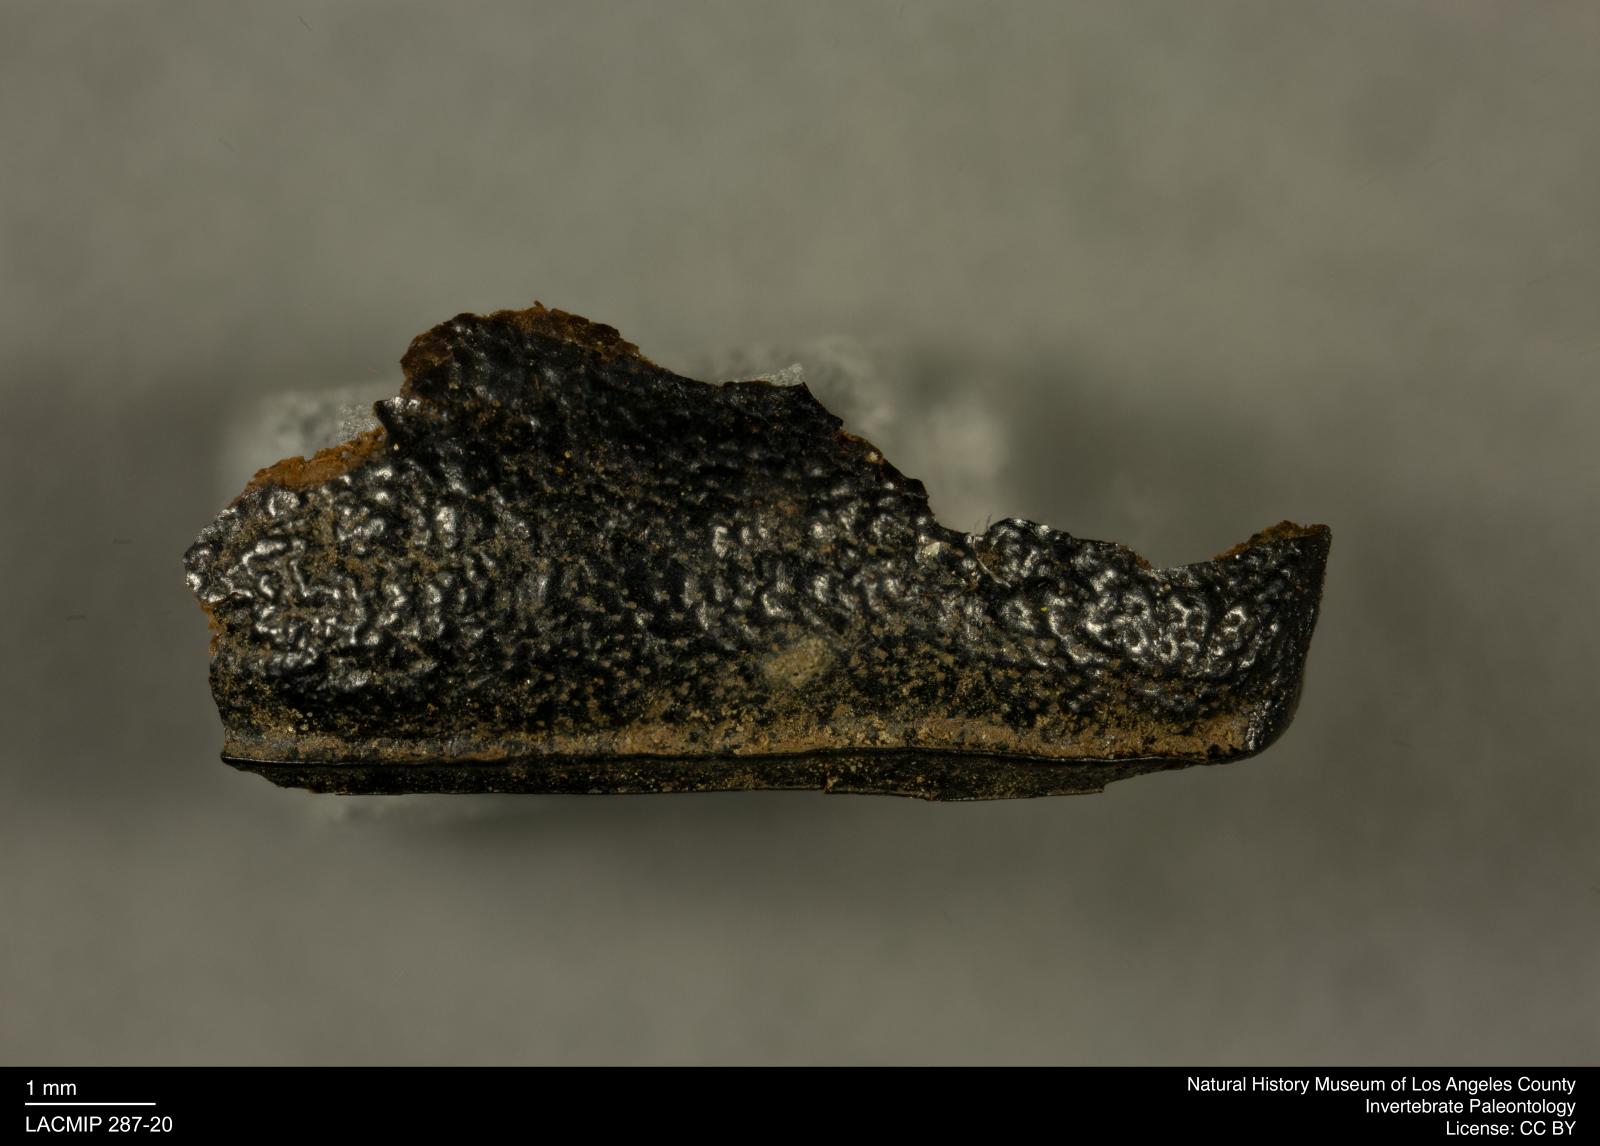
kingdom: Animalia
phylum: Arthropoda
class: Insecta
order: Coleoptera
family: Tenebrionidae
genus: Coniontis
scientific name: Coniontis abdominalis
